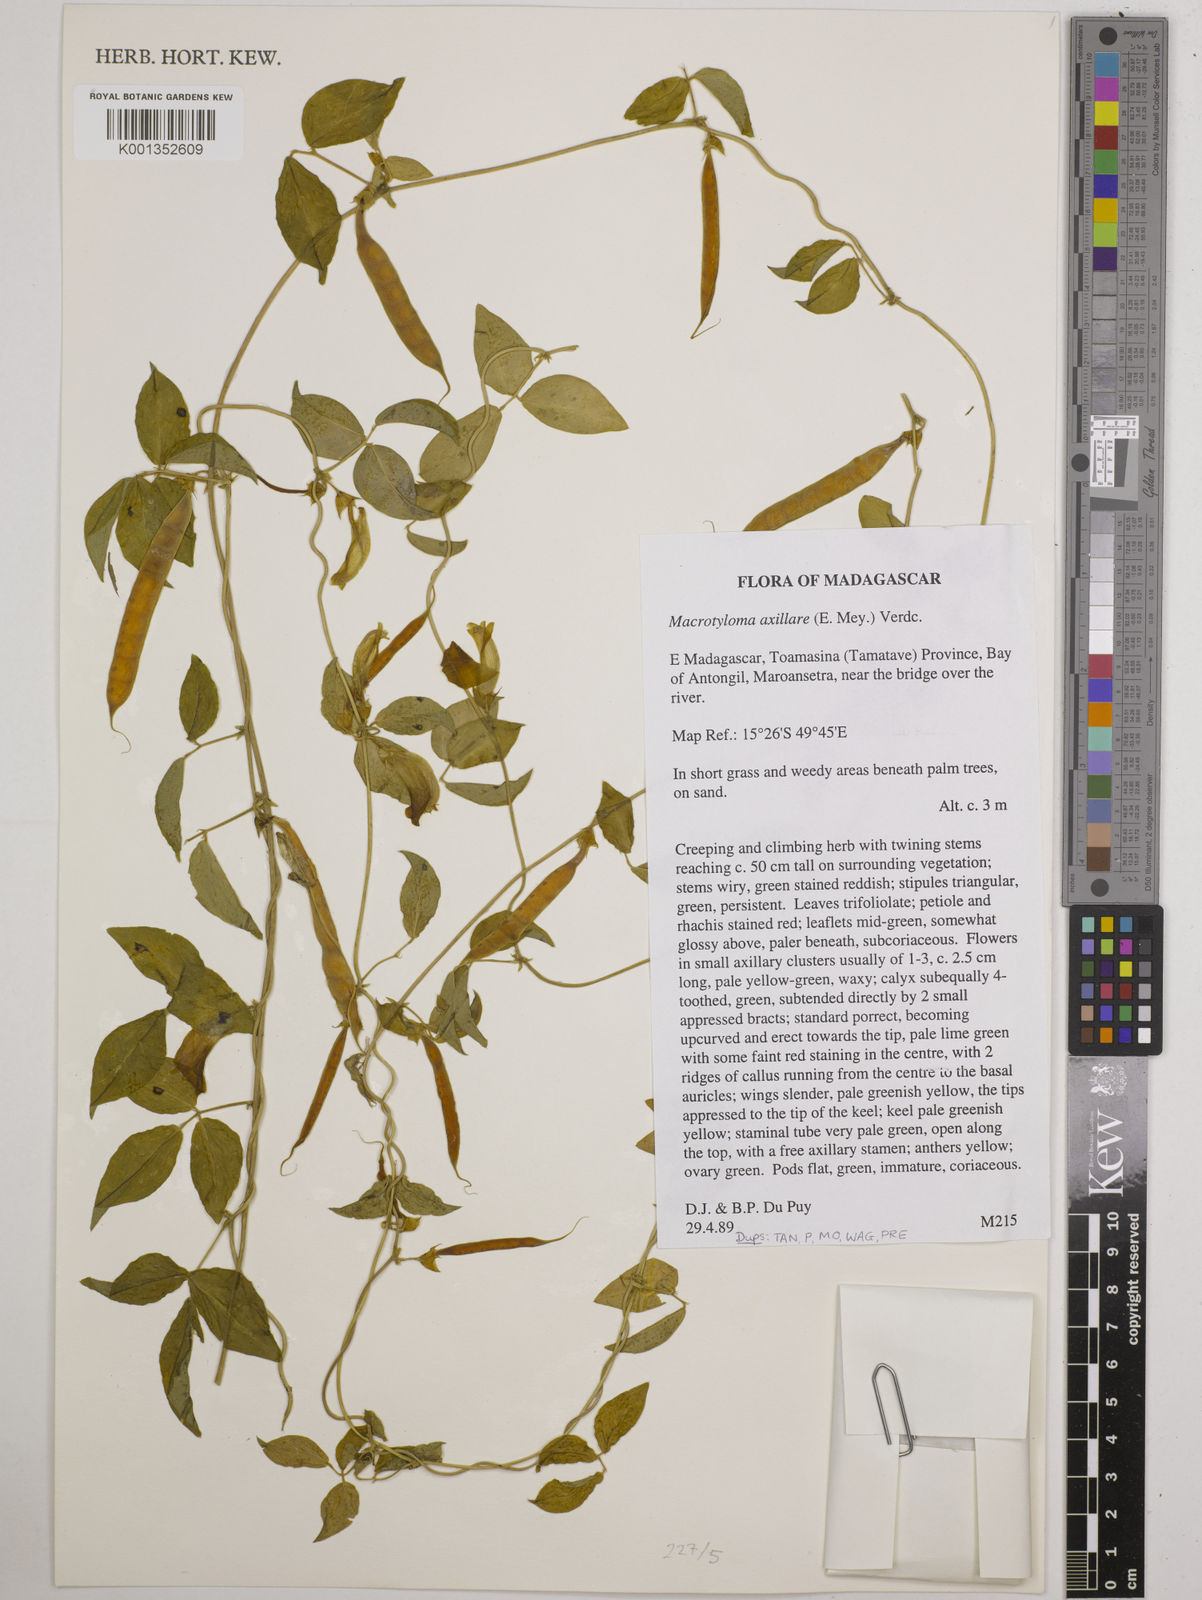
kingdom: Plantae
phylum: Tracheophyta
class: Magnoliopsida
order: Fabales
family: Fabaceae
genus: Macrotyloma
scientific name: Macrotyloma
